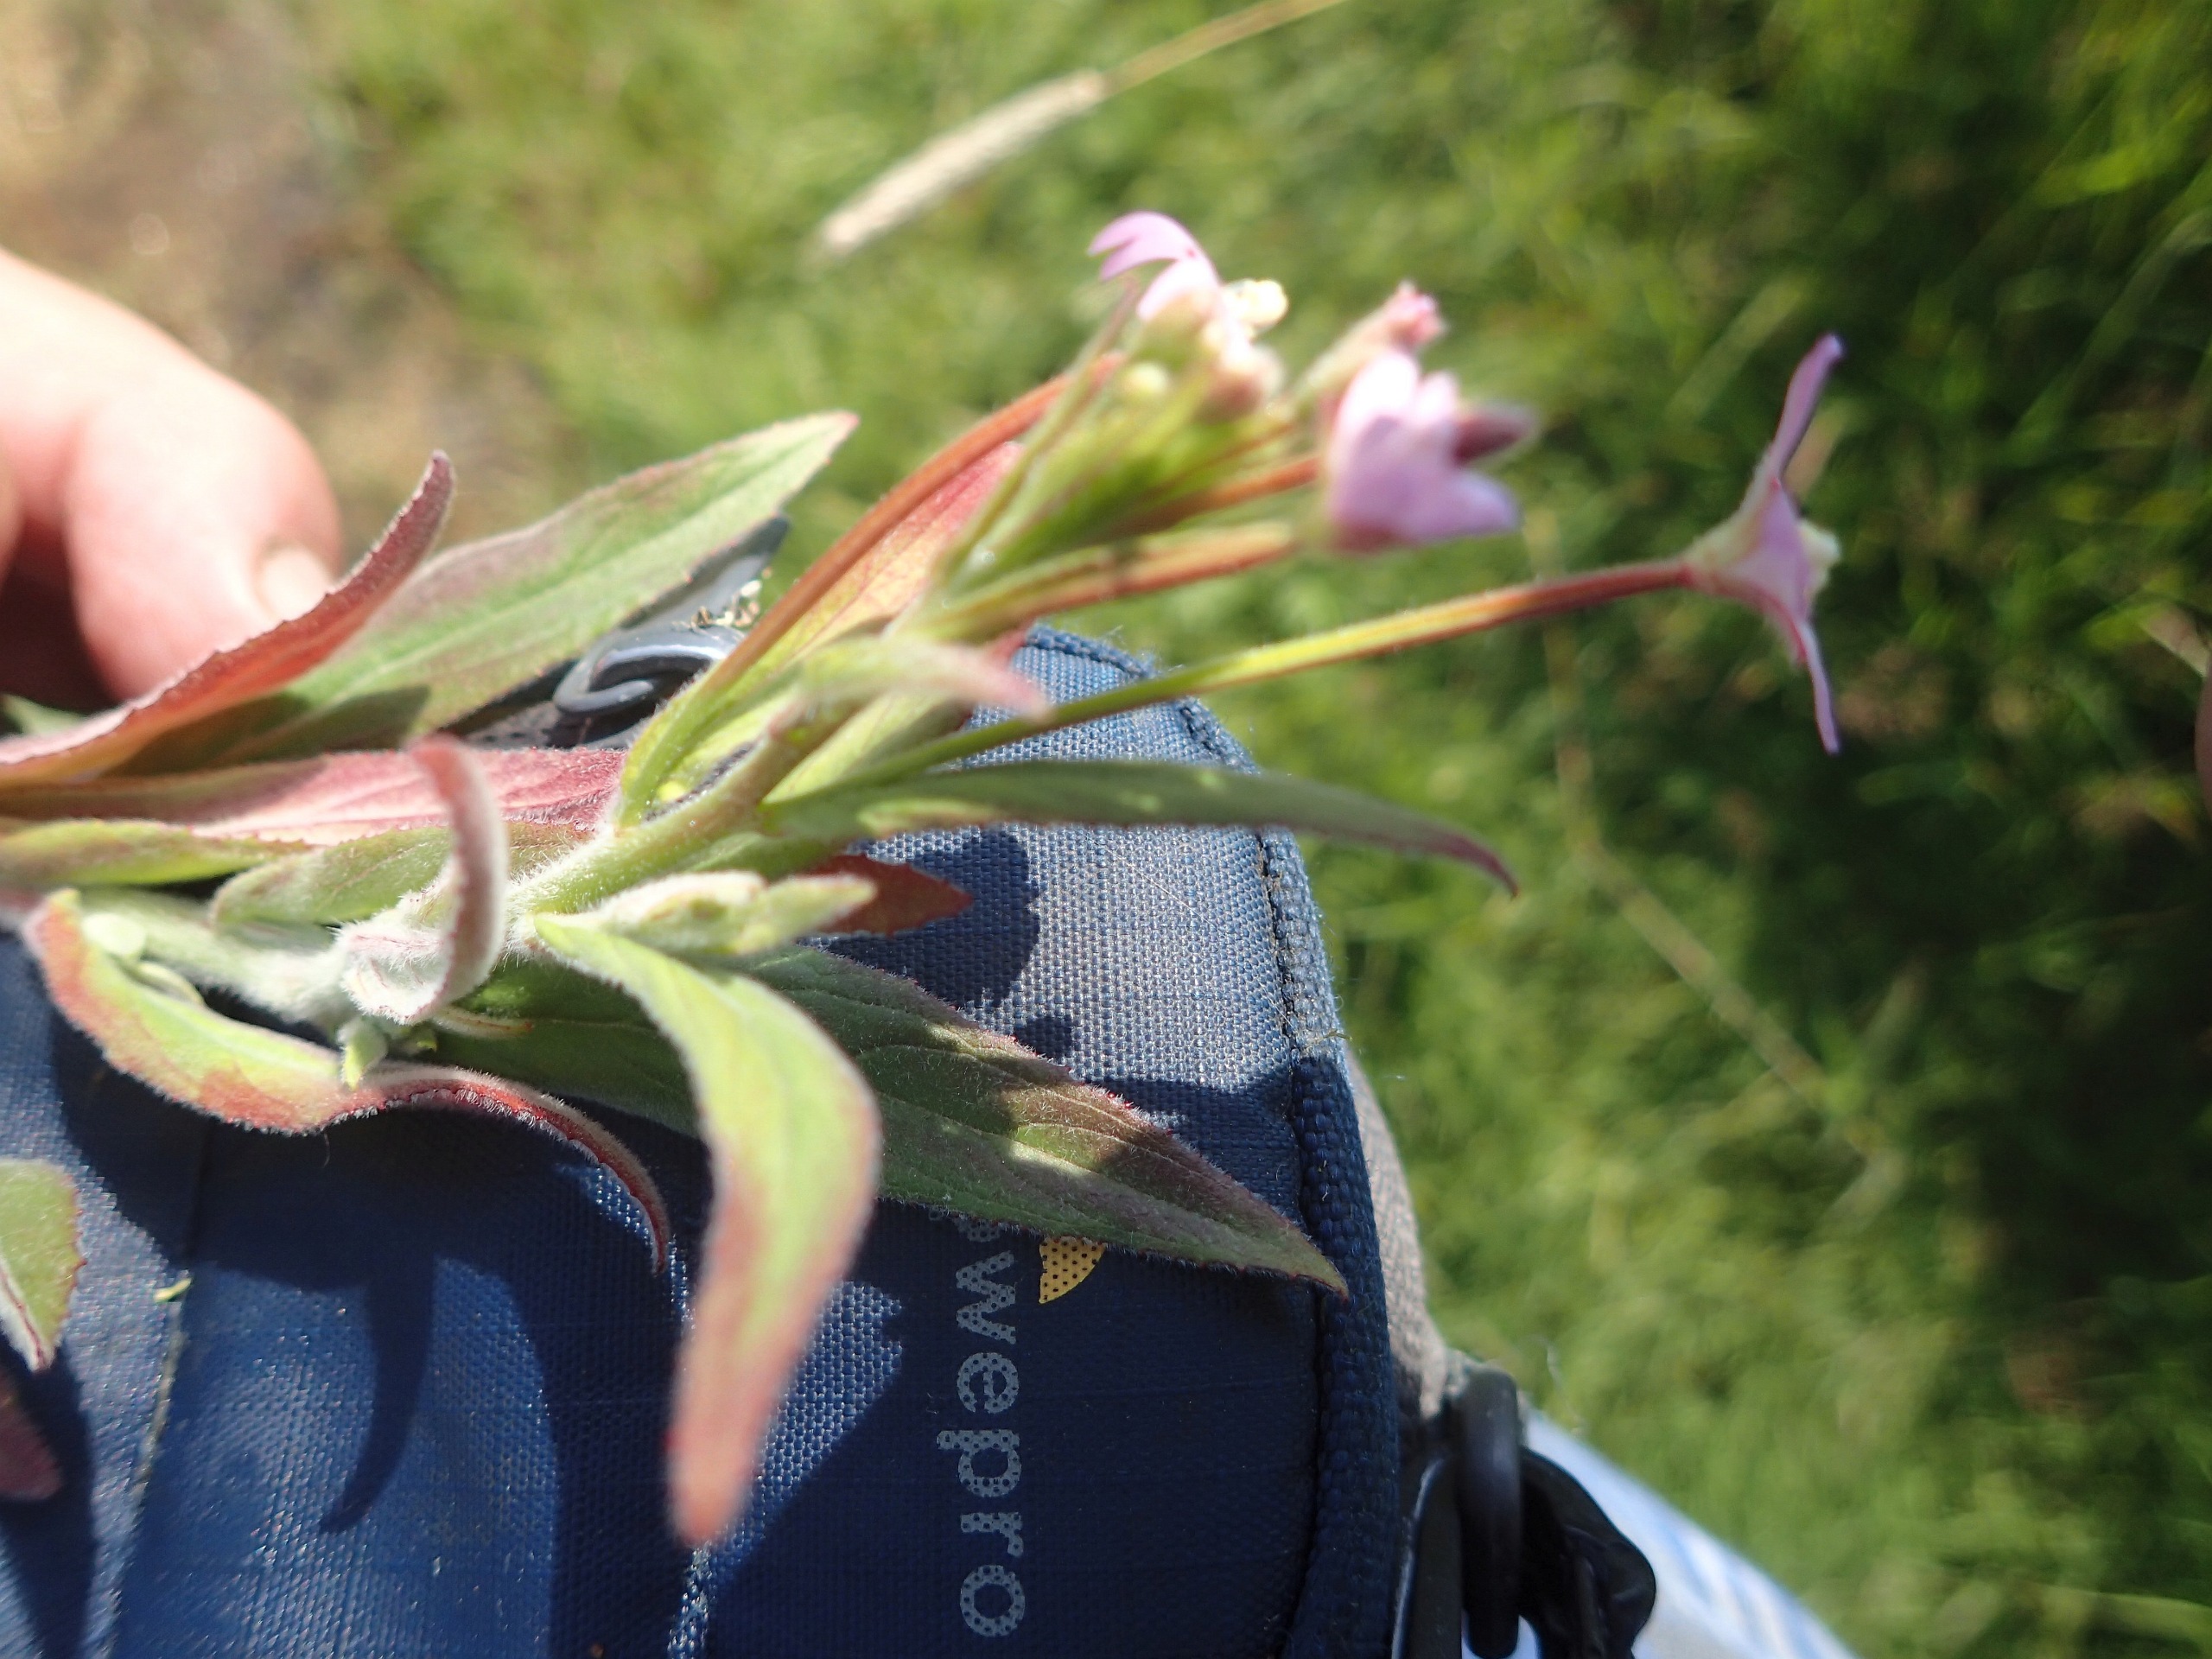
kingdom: Plantae
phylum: Tracheophyta
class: Magnoliopsida
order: Myrtales
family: Onagraceae
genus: Epilobium
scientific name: Epilobium parviflorum
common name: Dunet dueurt
